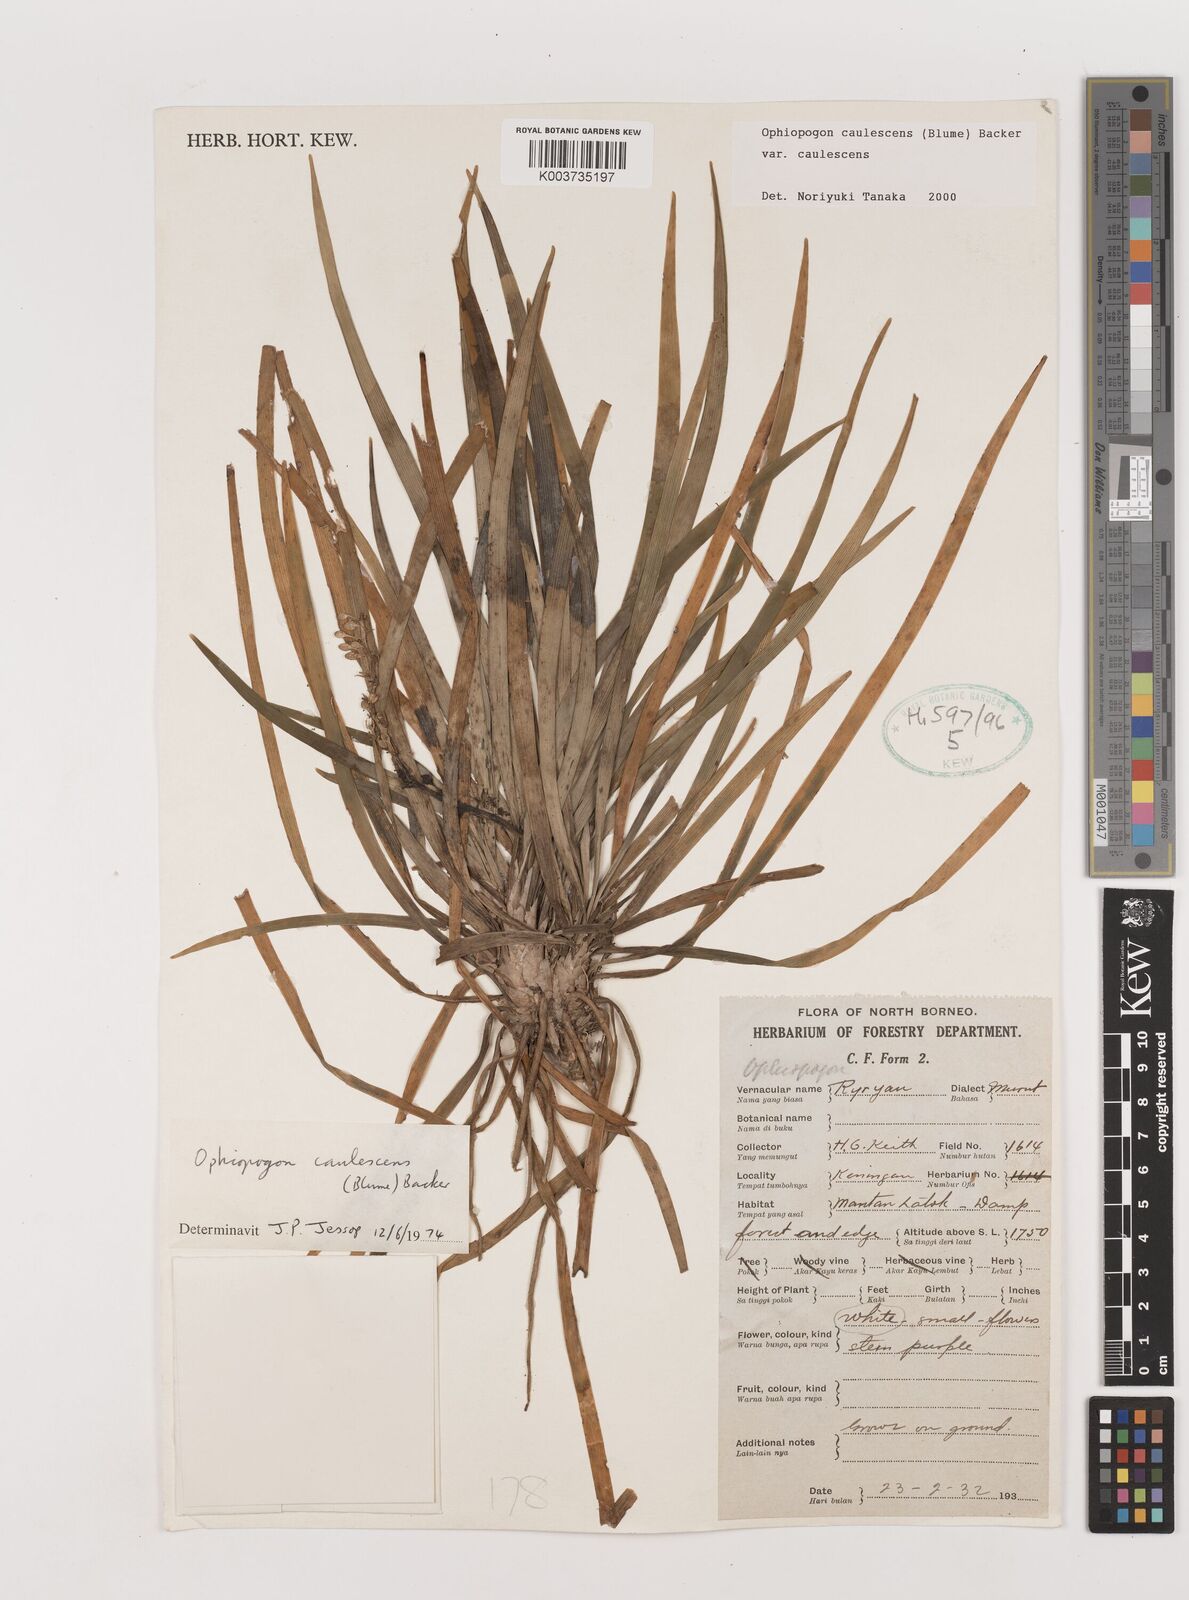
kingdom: Plantae
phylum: Tracheophyta
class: Liliopsida
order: Asparagales
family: Asparagaceae
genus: Ophiopogon
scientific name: Ophiopogon caulescens
